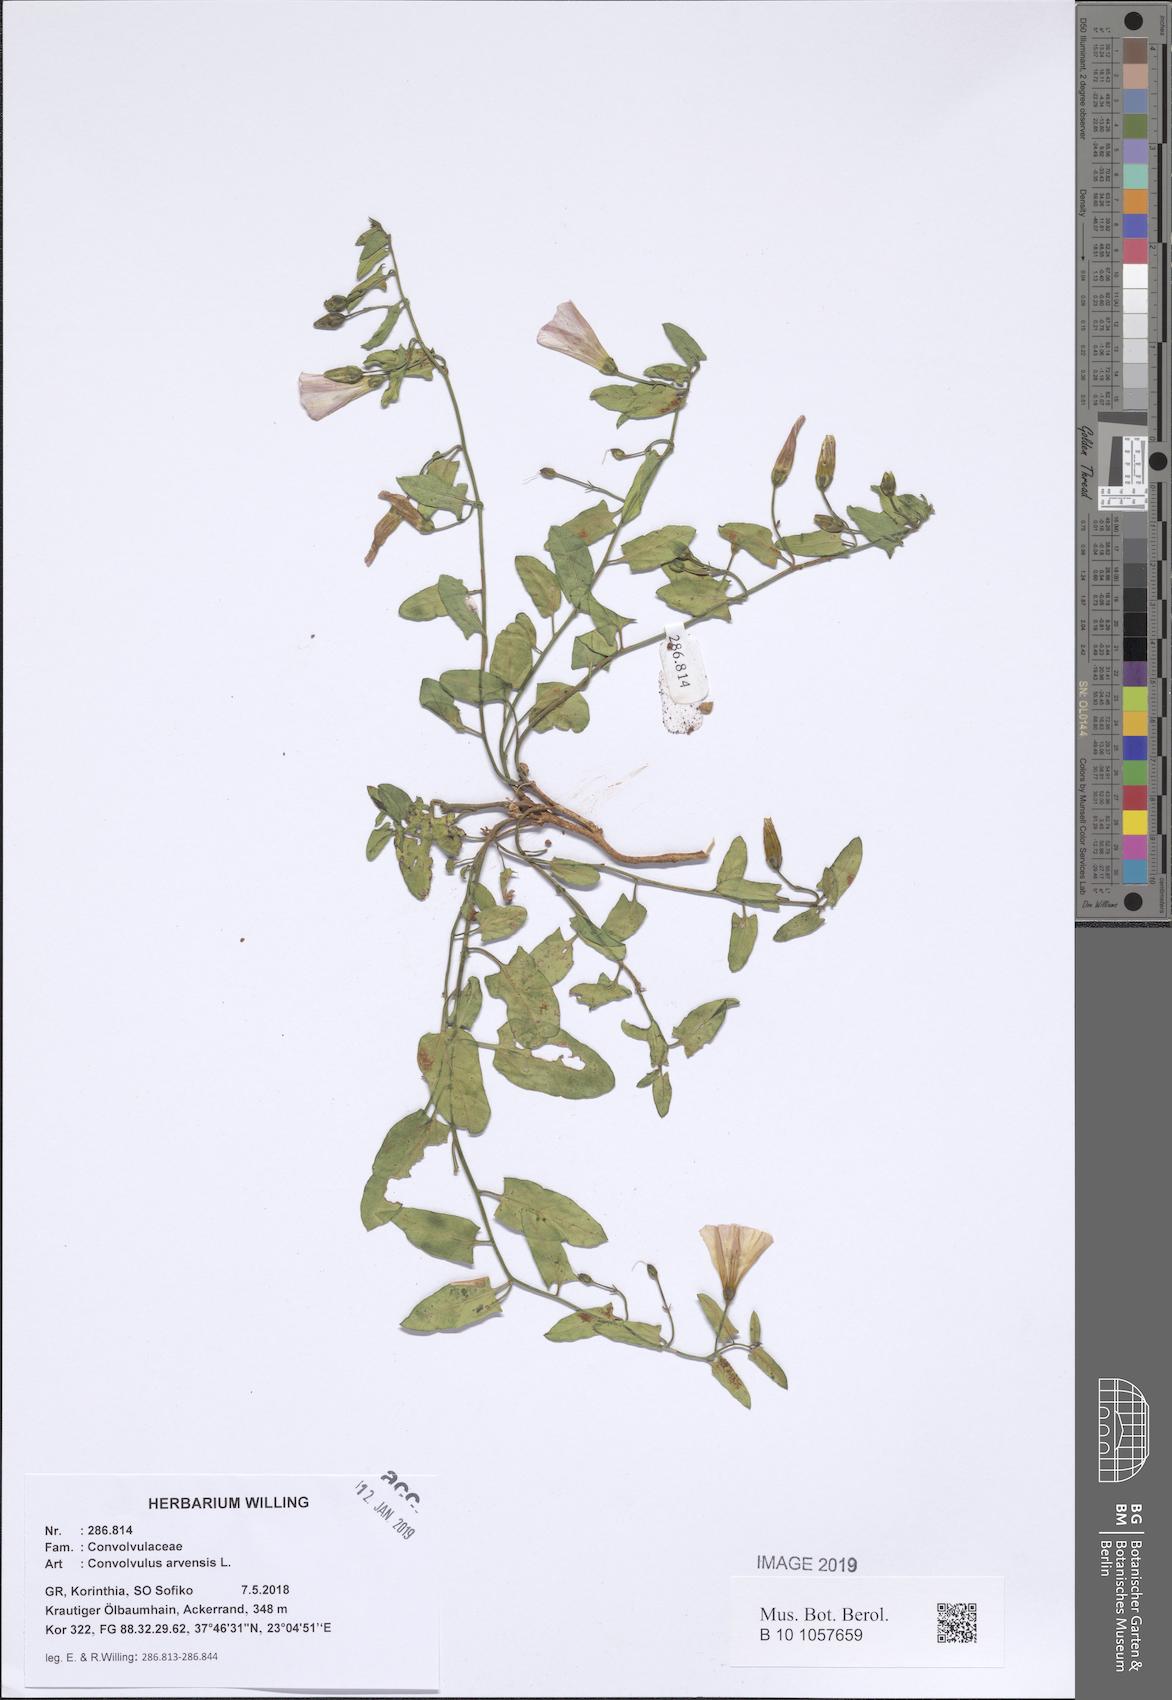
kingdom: Plantae
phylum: Tracheophyta
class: Magnoliopsida
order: Solanales
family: Convolvulaceae
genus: Convolvulus
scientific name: Convolvulus arvensis
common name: Field bindweed
